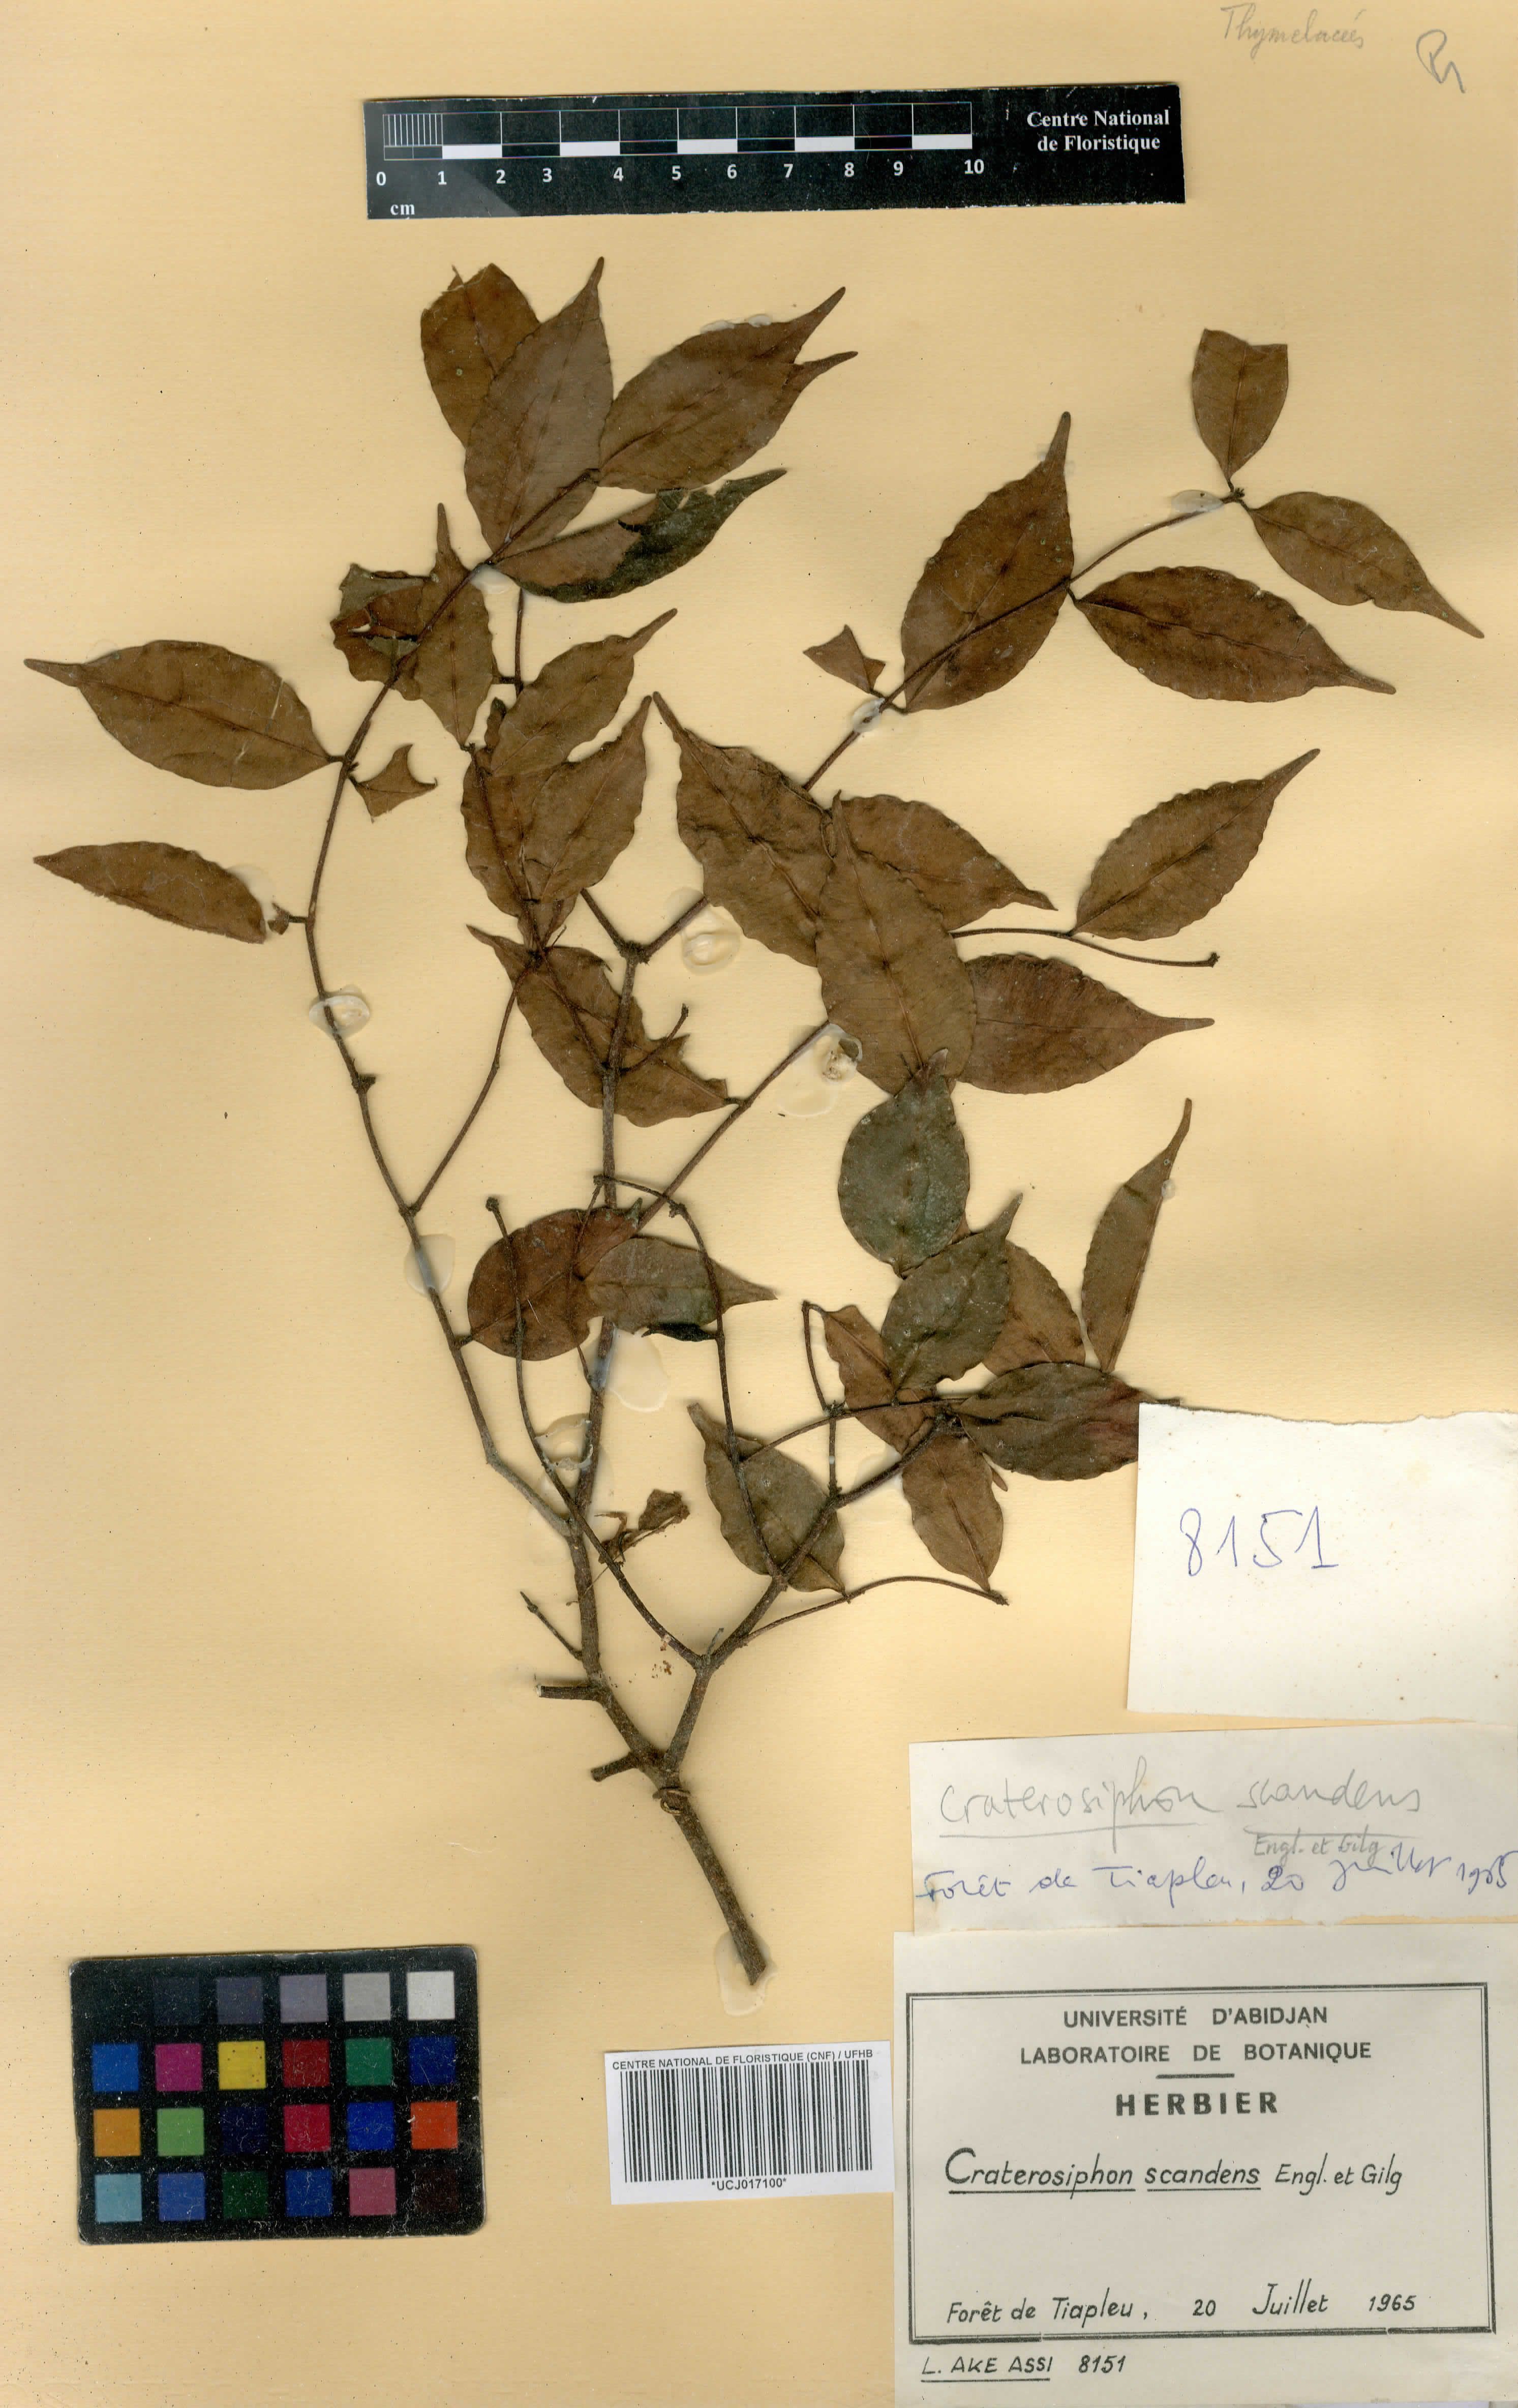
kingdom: Plantae
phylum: Tracheophyta
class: Magnoliopsida
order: Malvales
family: Thymelaeaceae
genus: Craterosiphon
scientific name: Craterosiphon scandens
